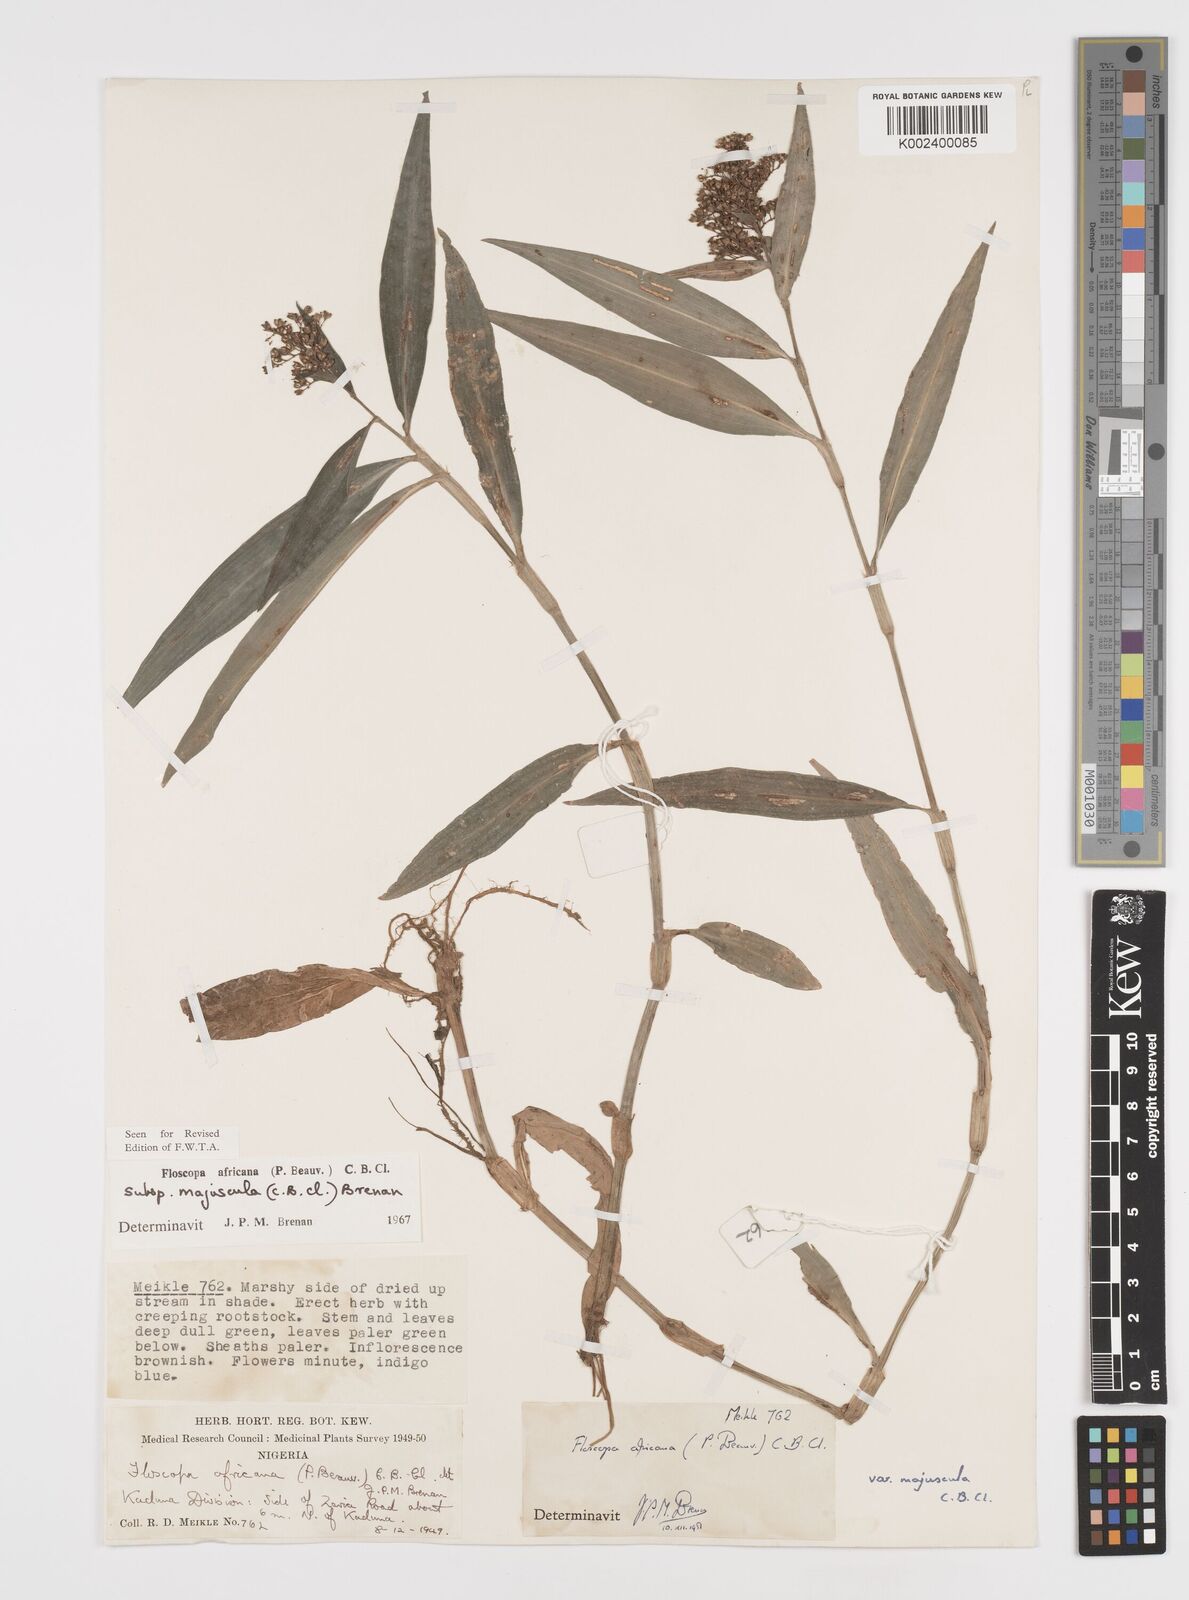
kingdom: Plantae
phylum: Tracheophyta
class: Liliopsida
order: Commelinales
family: Commelinaceae
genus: Floscopa
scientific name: Floscopa africana
